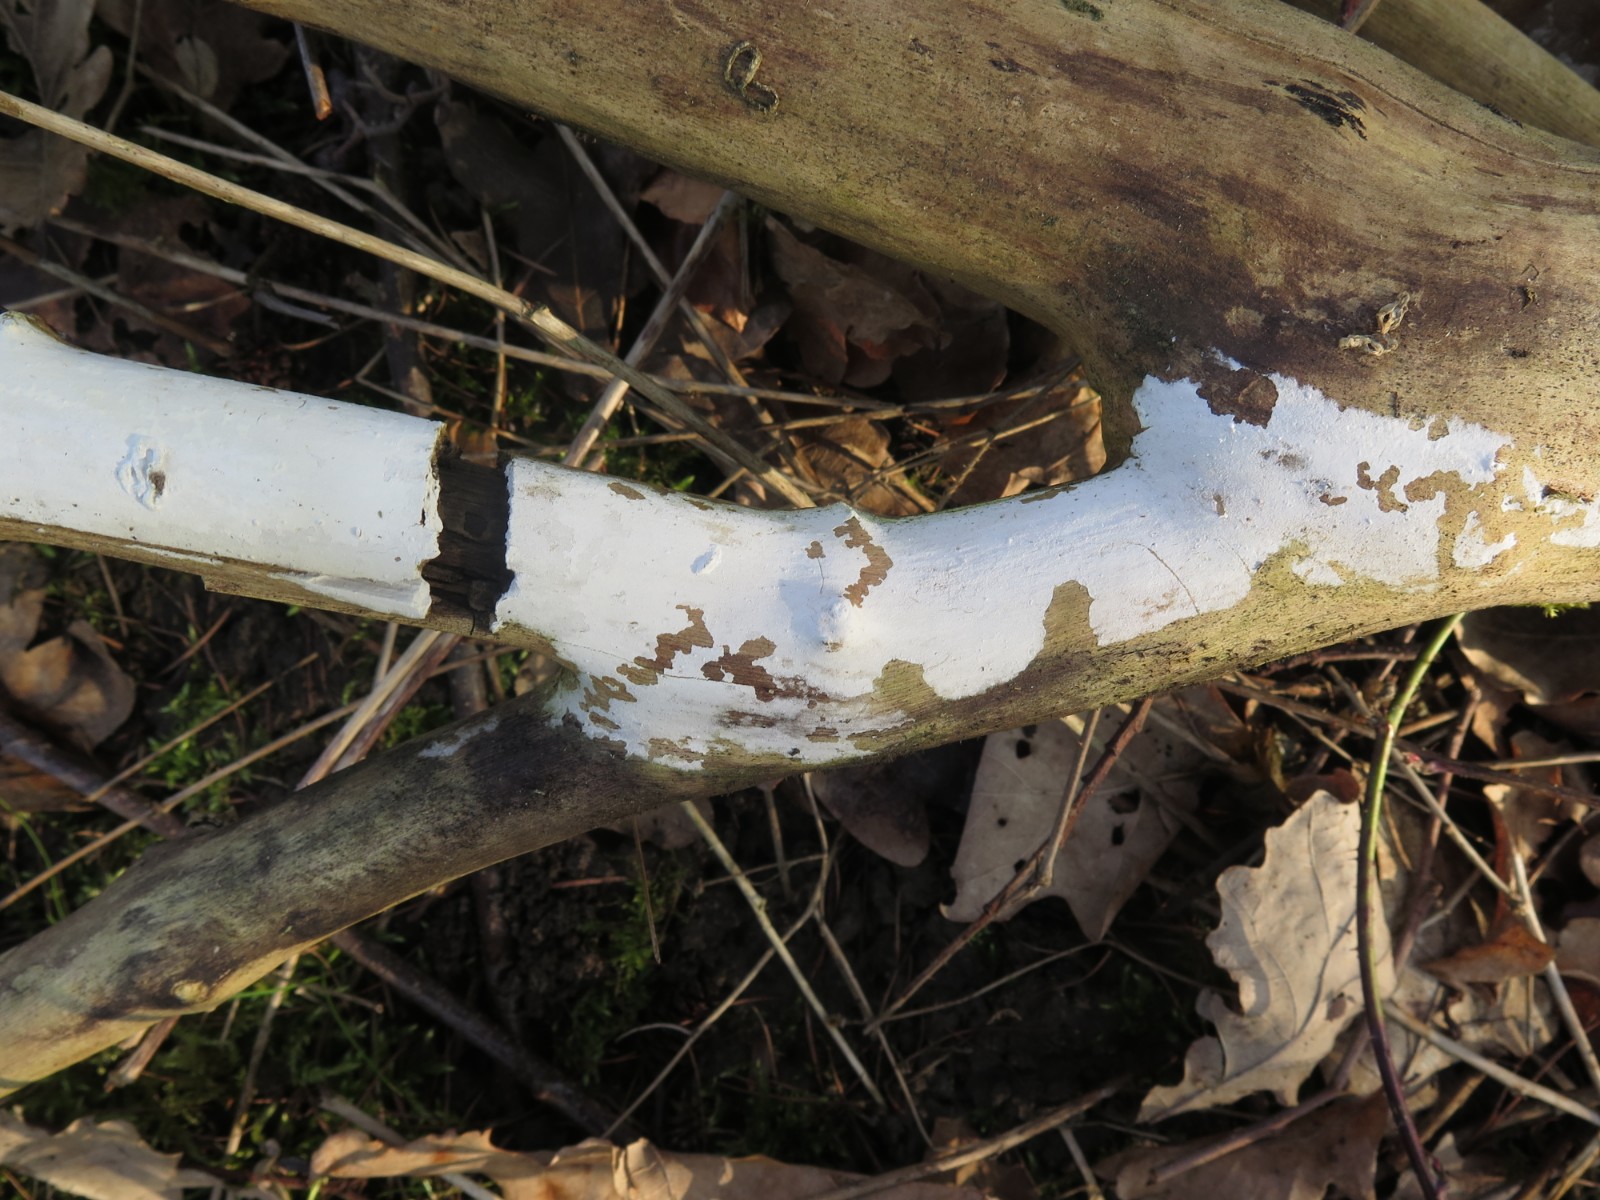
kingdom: Fungi
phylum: Basidiomycota
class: Agaricomycetes
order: Corticiales
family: Corticiaceae
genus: Lyomyces
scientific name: Lyomyces sambuci
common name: almindelig hyldehinde
